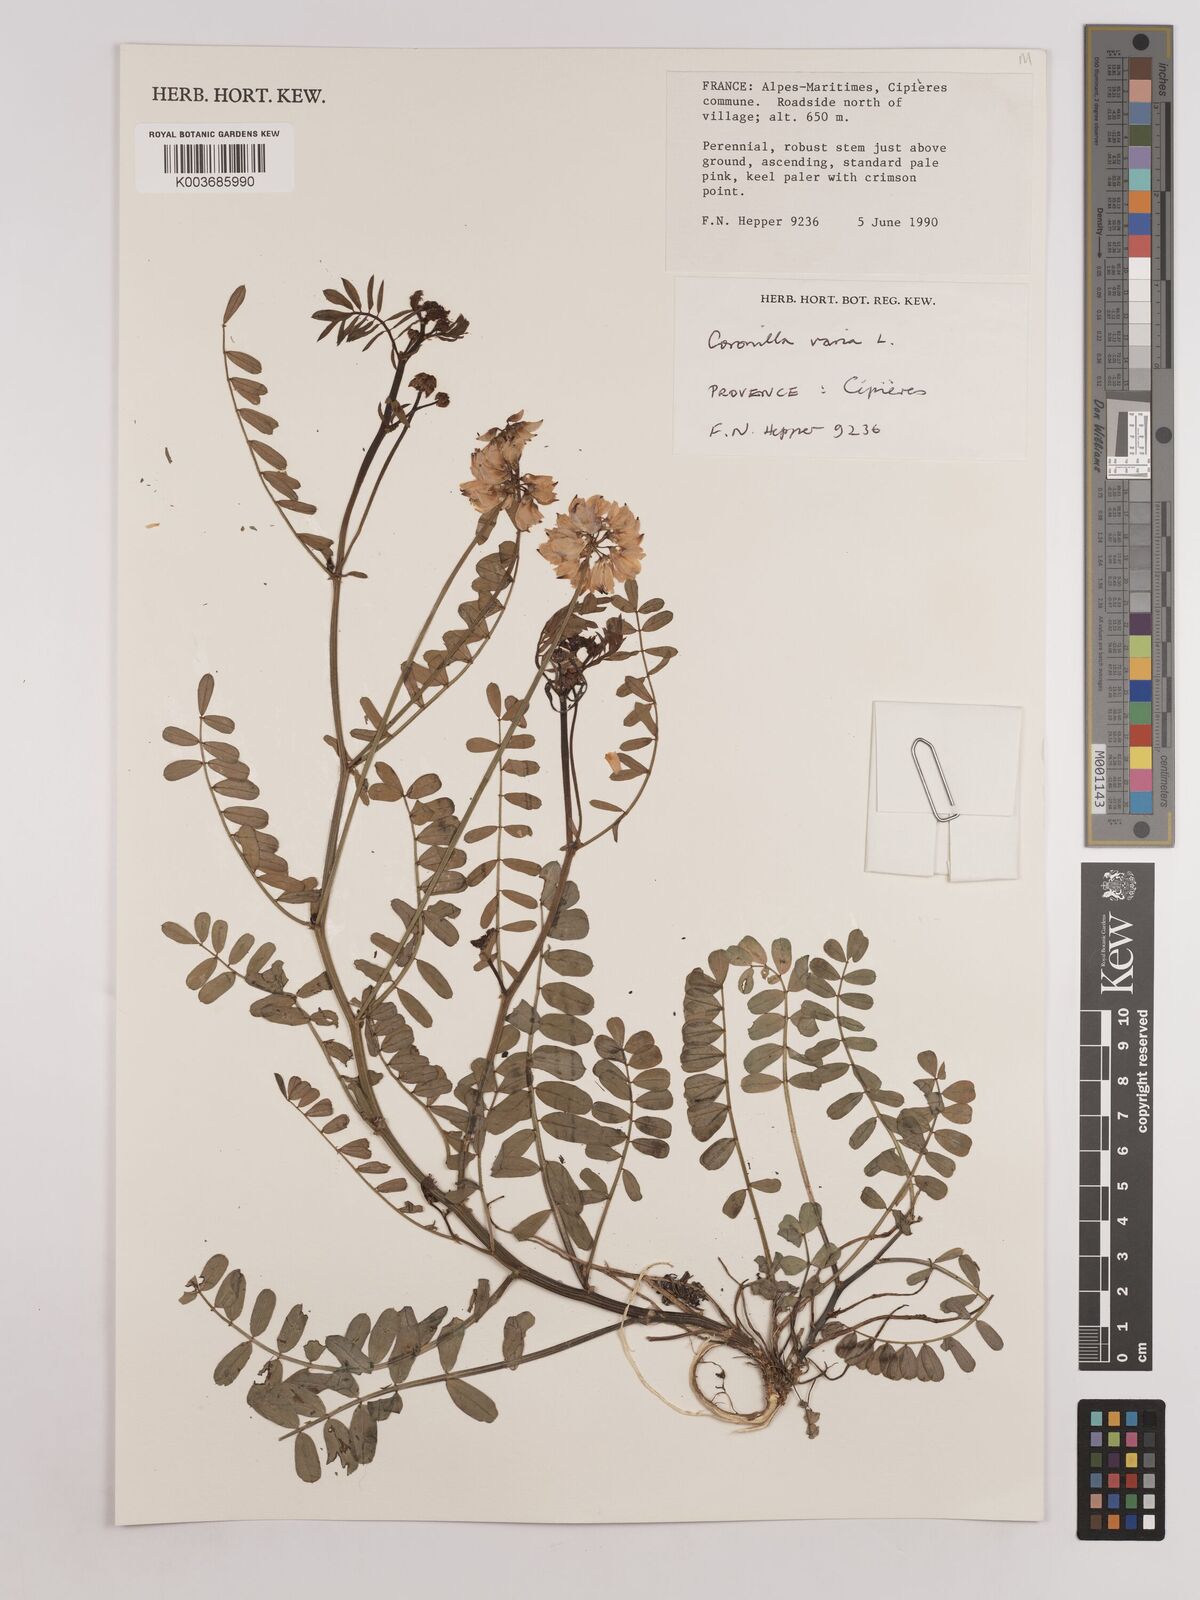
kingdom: Plantae
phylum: Tracheophyta
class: Magnoliopsida
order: Fabales
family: Fabaceae
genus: Coronilla
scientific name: Coronilla varia
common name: Crownvetch
